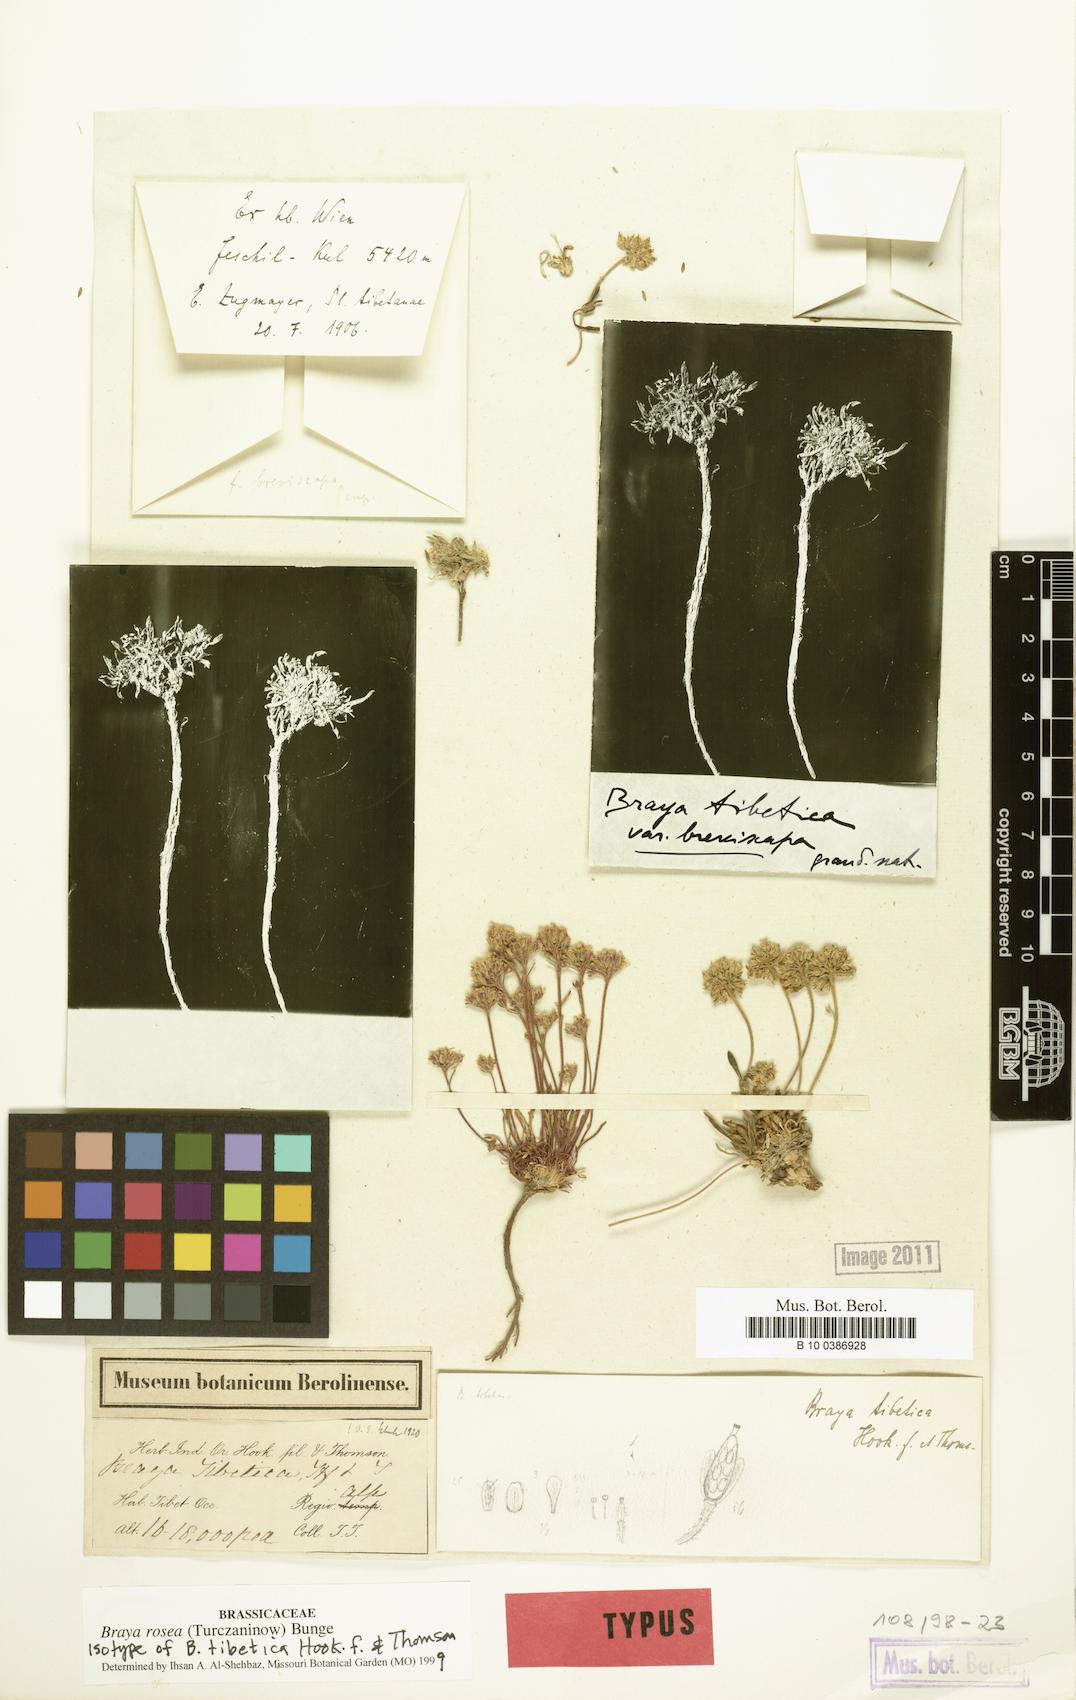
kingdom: Plantae
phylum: Tracheophyta
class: Magnoliopsida
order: Brassicales
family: Brassicaceae
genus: Braya
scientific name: Braya rosea
